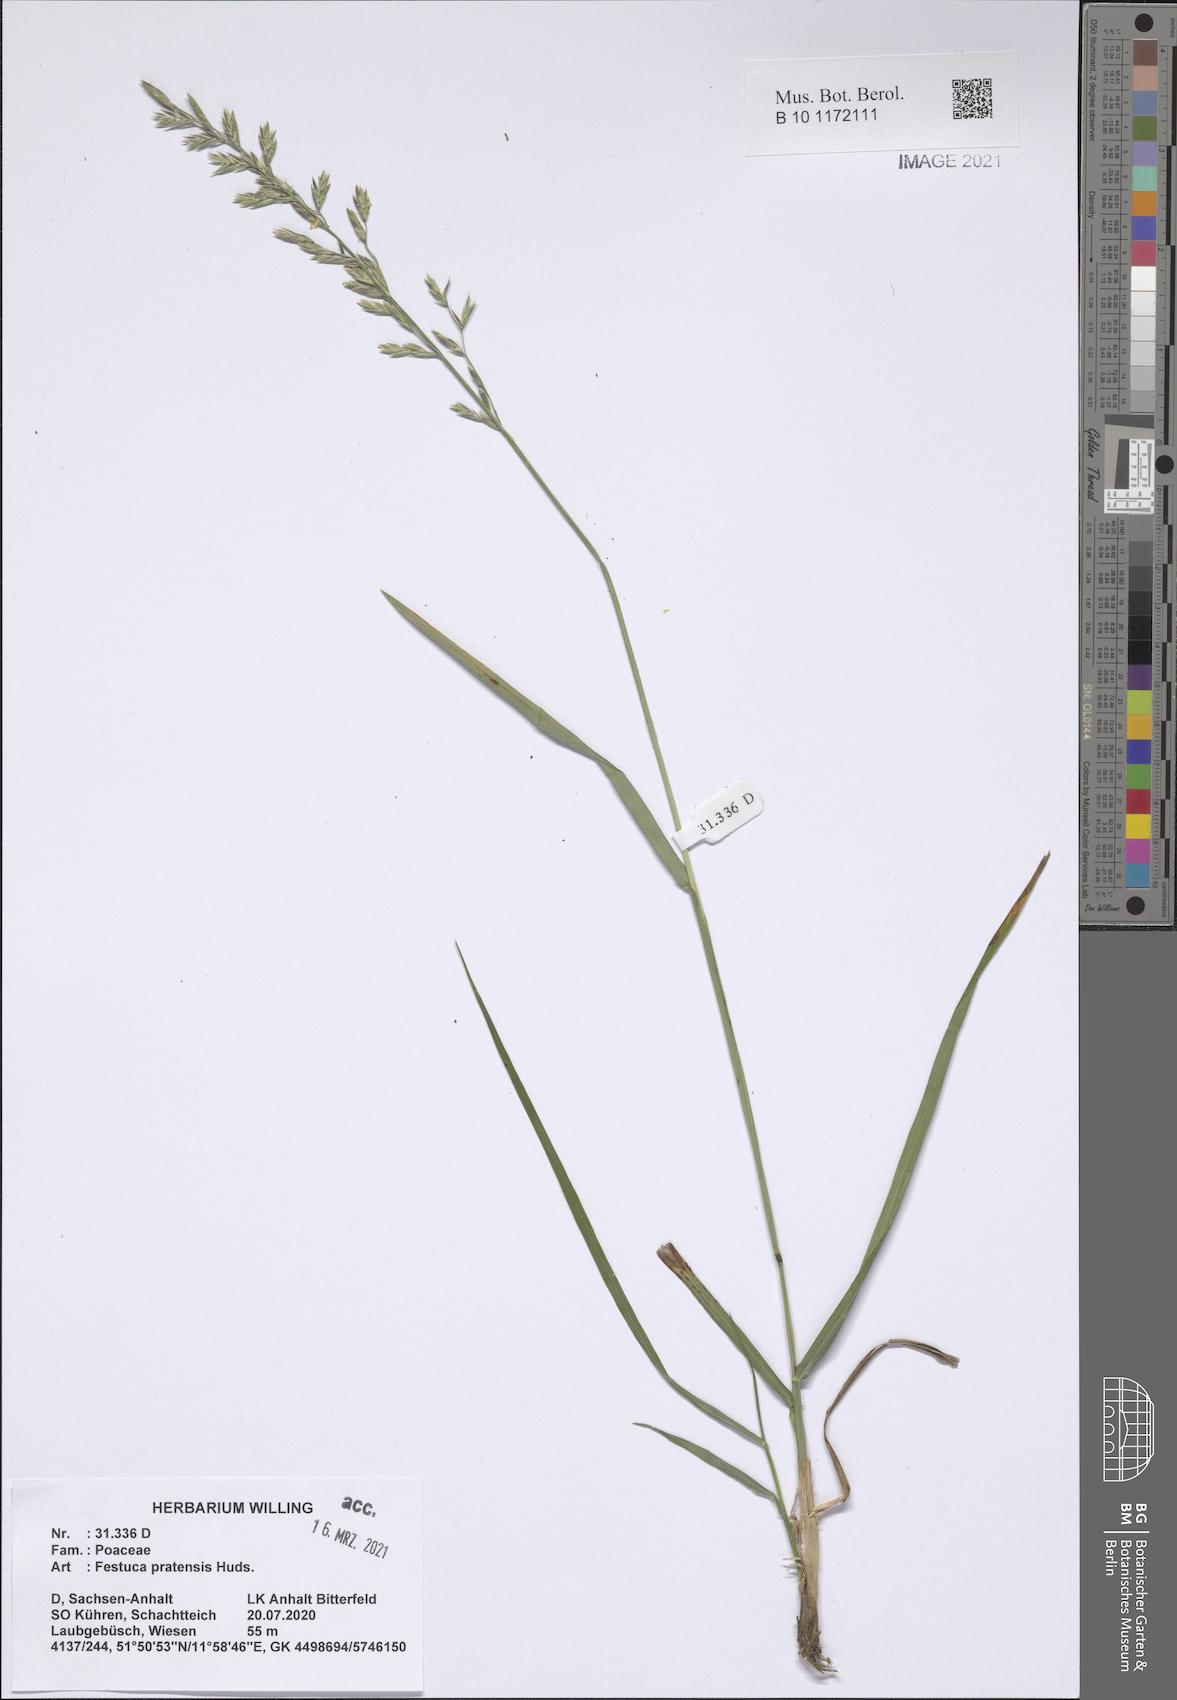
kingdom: Plantae
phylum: Tracheophyta
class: Liliopsida
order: Poales
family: Poaceae
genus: Lolium
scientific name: Lolium pratense
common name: Dover grass
